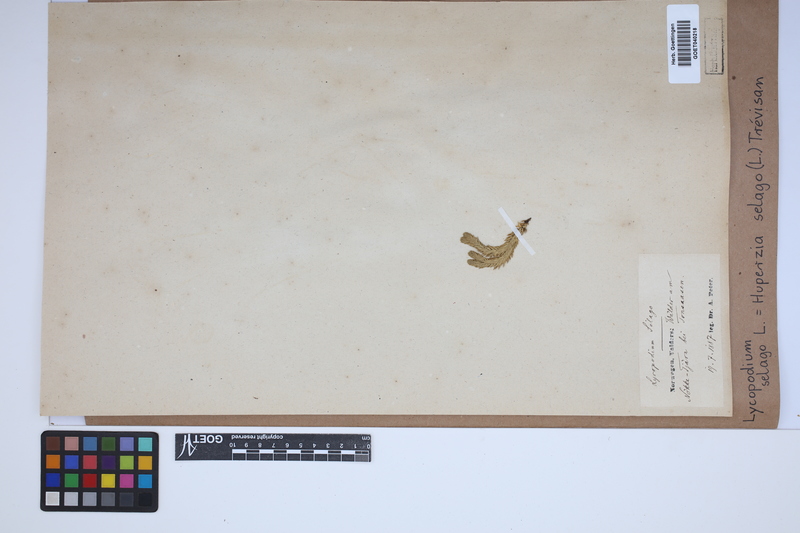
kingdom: Plantae
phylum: Tracheophyta
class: Lycopodiopsida
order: Lycopodiales
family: Lycopodiaceae
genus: Huperzia
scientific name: Huperzia selago
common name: Northern firmoss
